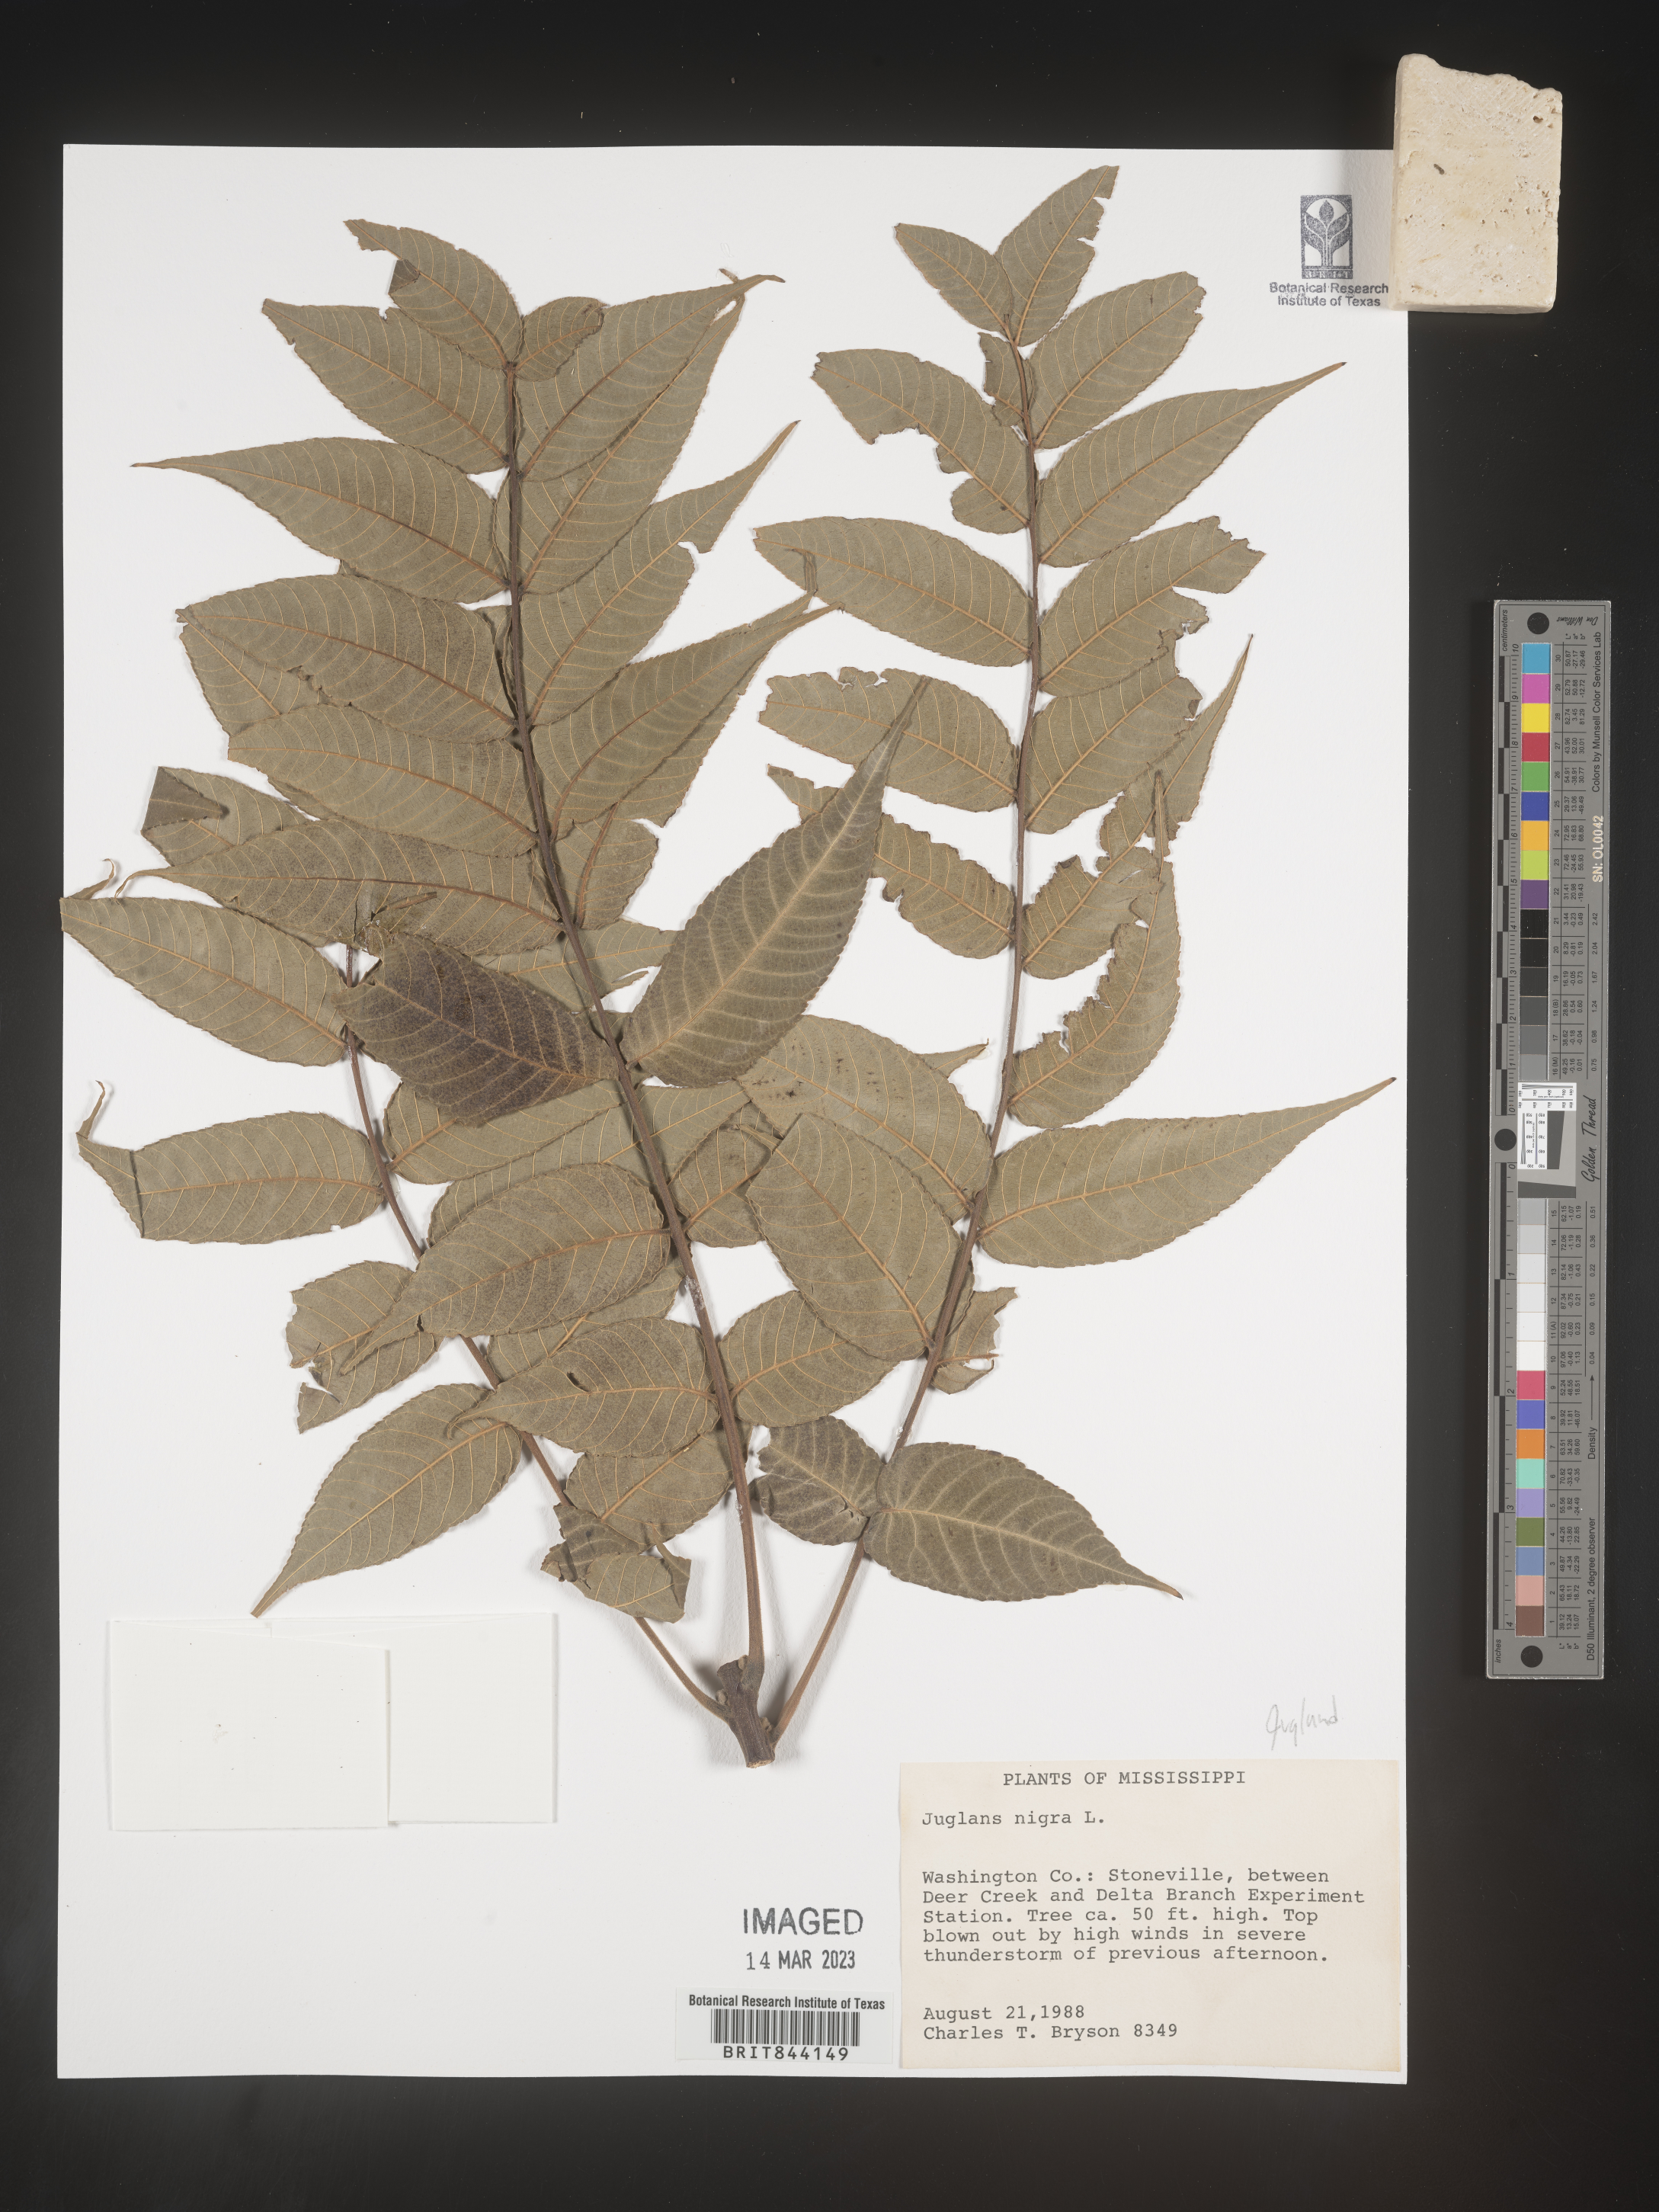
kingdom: Plantae
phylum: Tracheophyta
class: Magnoliopsida
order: Fagales
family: Juglandaceae
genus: Juglans
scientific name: Juglans nigra
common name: Black walnut
